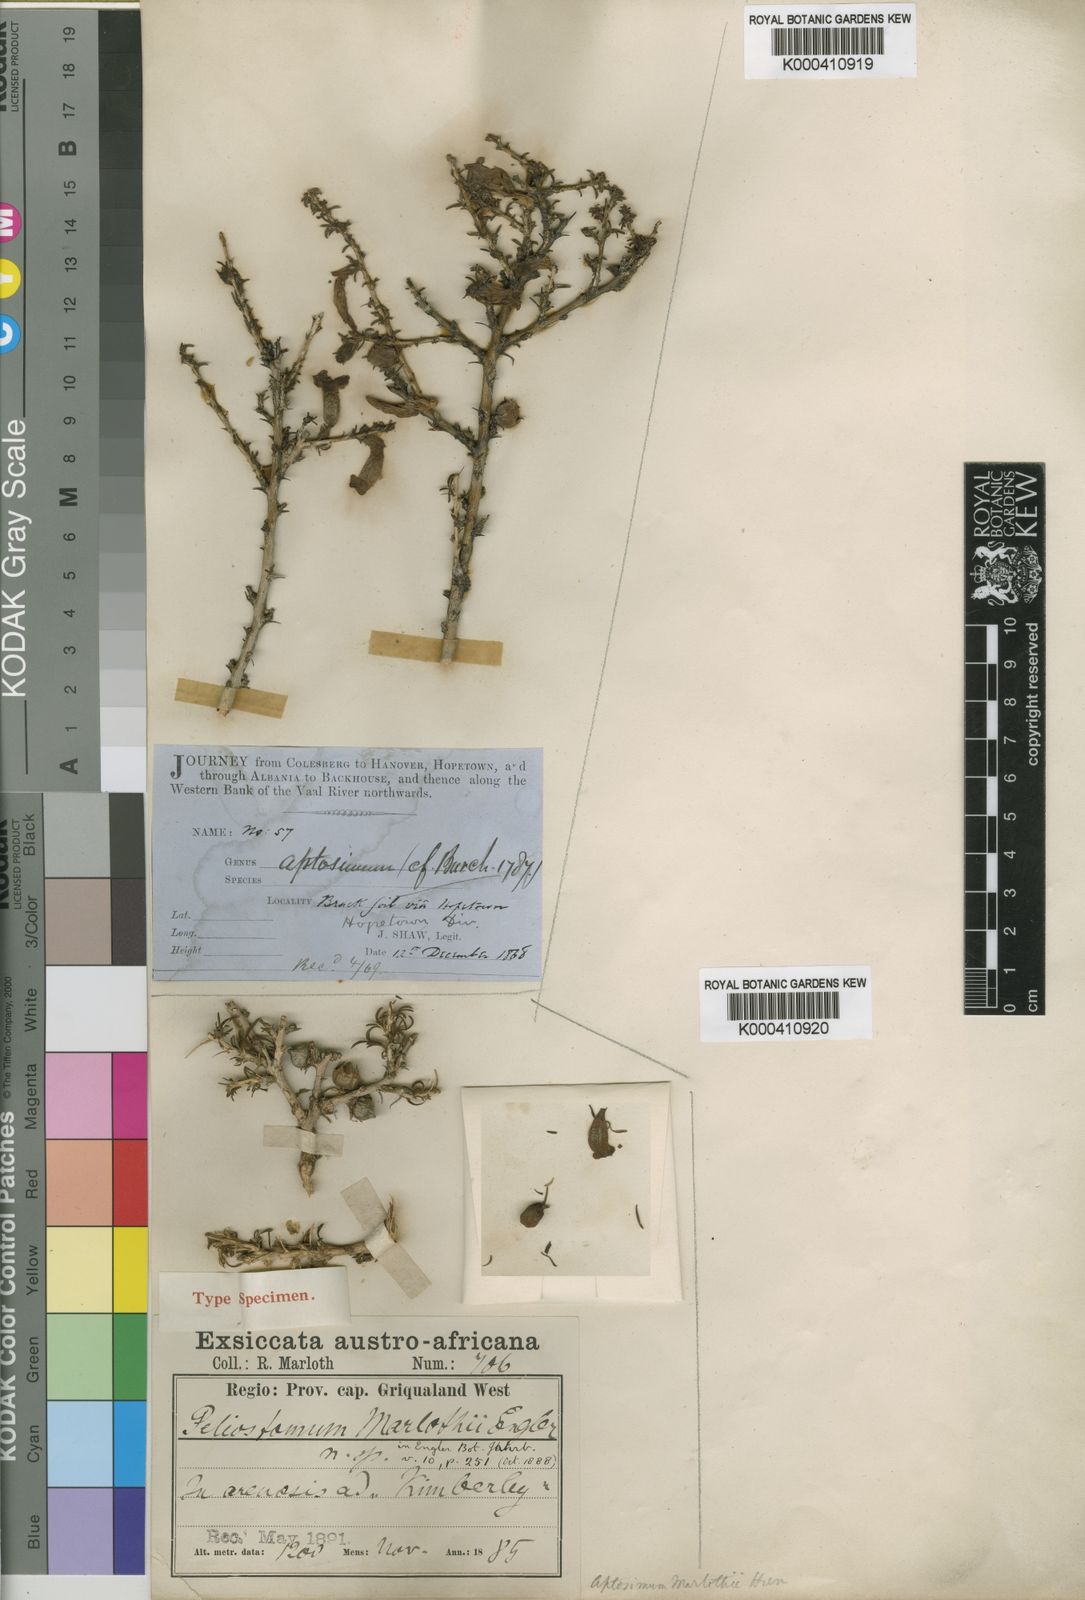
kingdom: Plantae
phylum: Tracheophyta
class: Magnoliopsida
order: Lamiales
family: Scrophulariaceae
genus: Aptosimum
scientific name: Aptosimum marlothii
